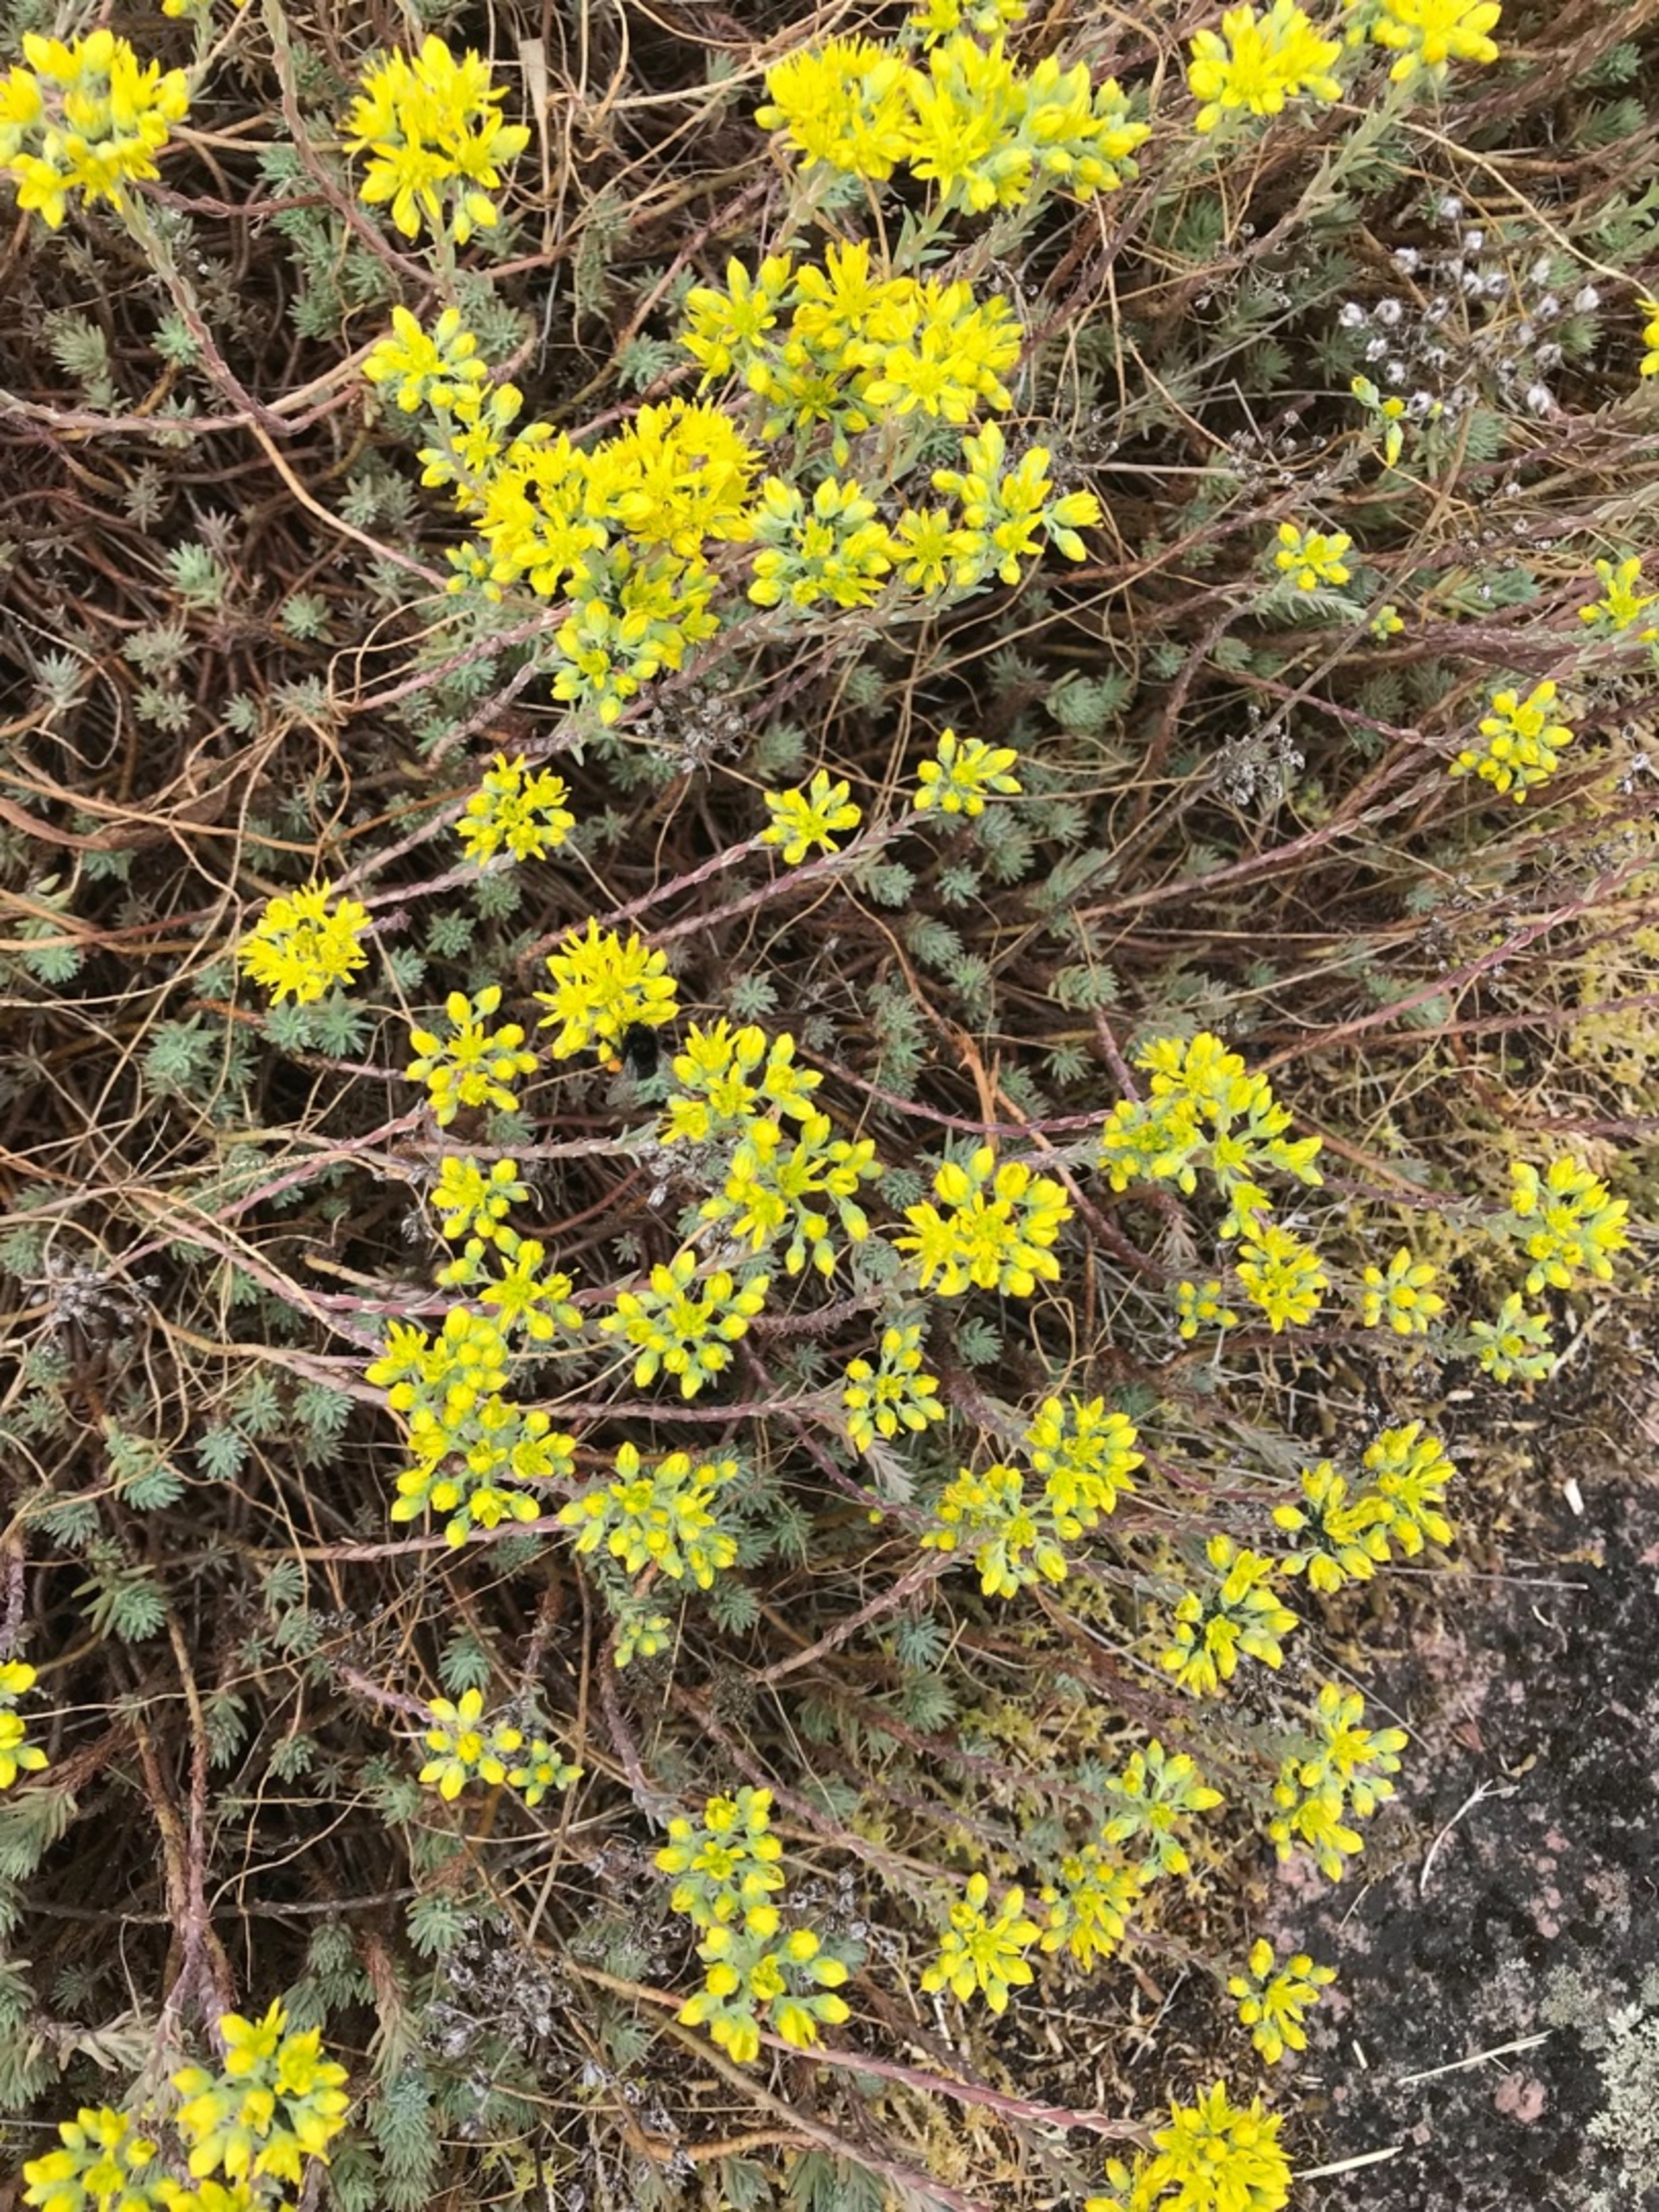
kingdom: Plantae
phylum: Tracheophyta
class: Magnoliopsida
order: Saxifragales
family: Crassulaceae
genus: Petrosedum
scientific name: Petrosedum rupestre
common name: Bjerg-stenurt
